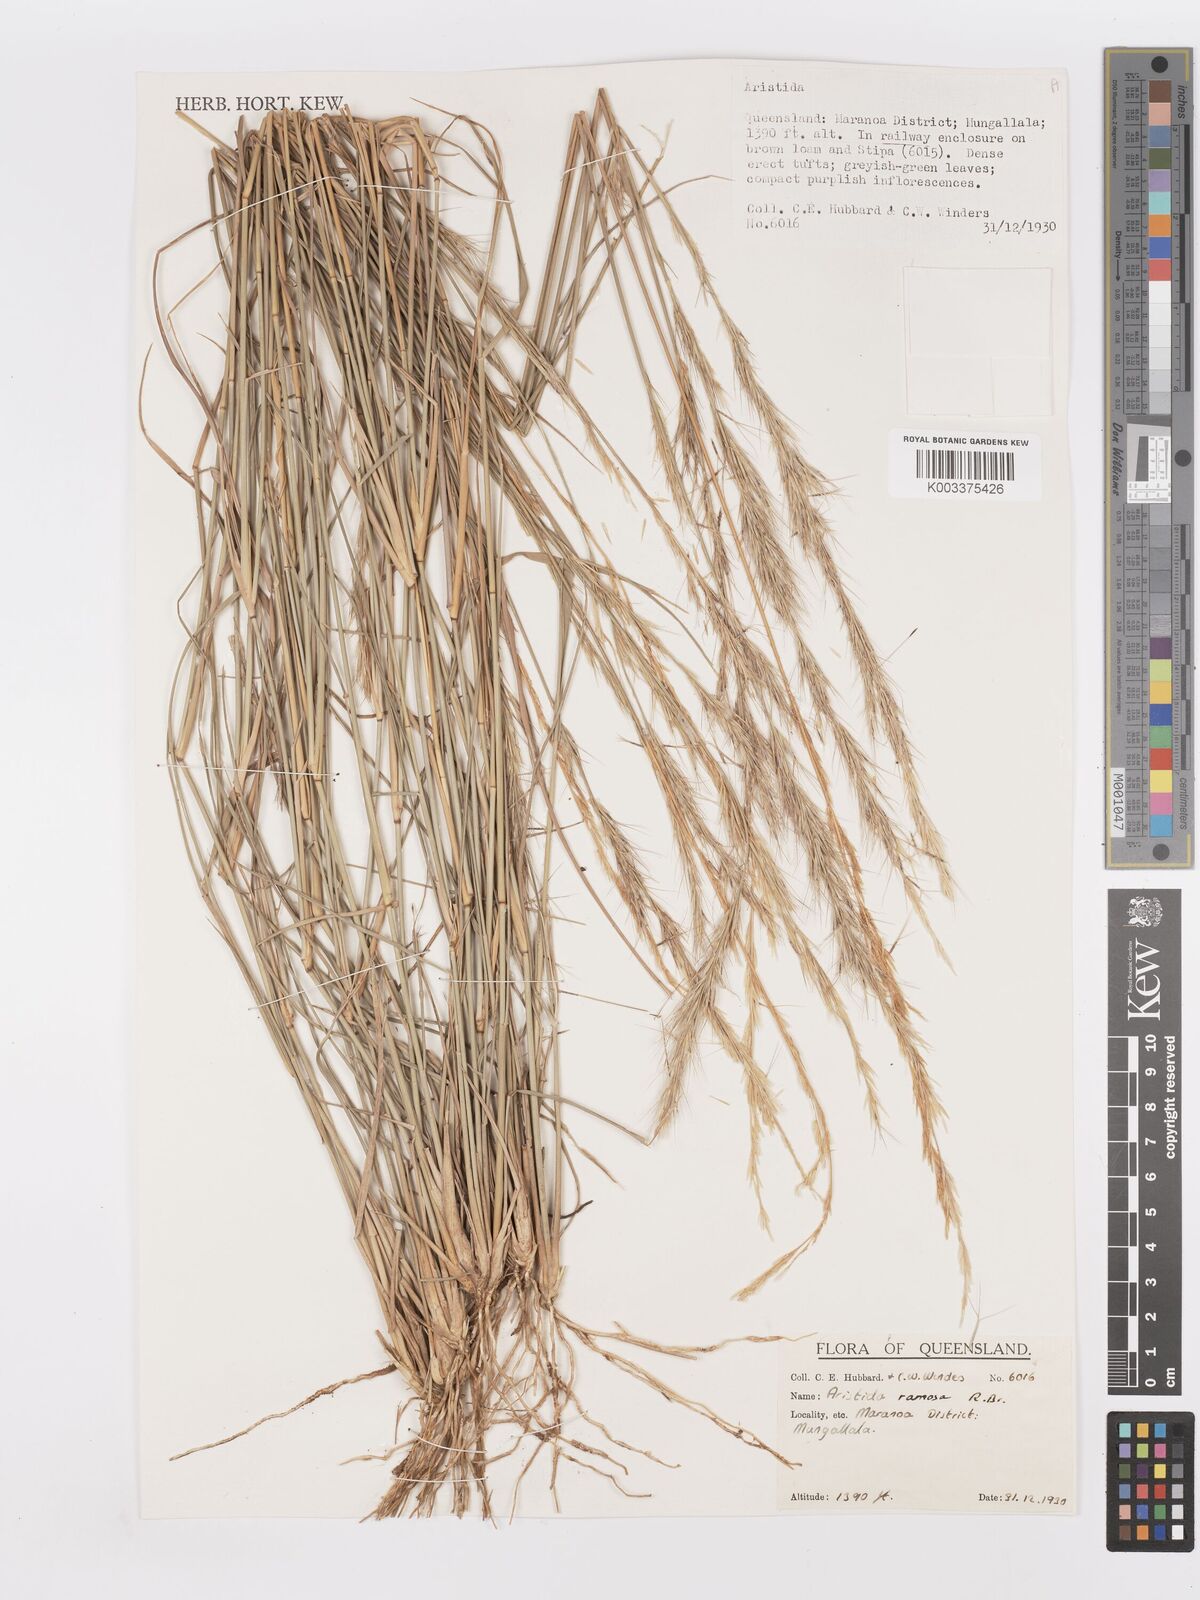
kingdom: Plantae
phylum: Tracheophyta
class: Liliopsida
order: Poales
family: Poaceae
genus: Aristida
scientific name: Aristida ramosa
